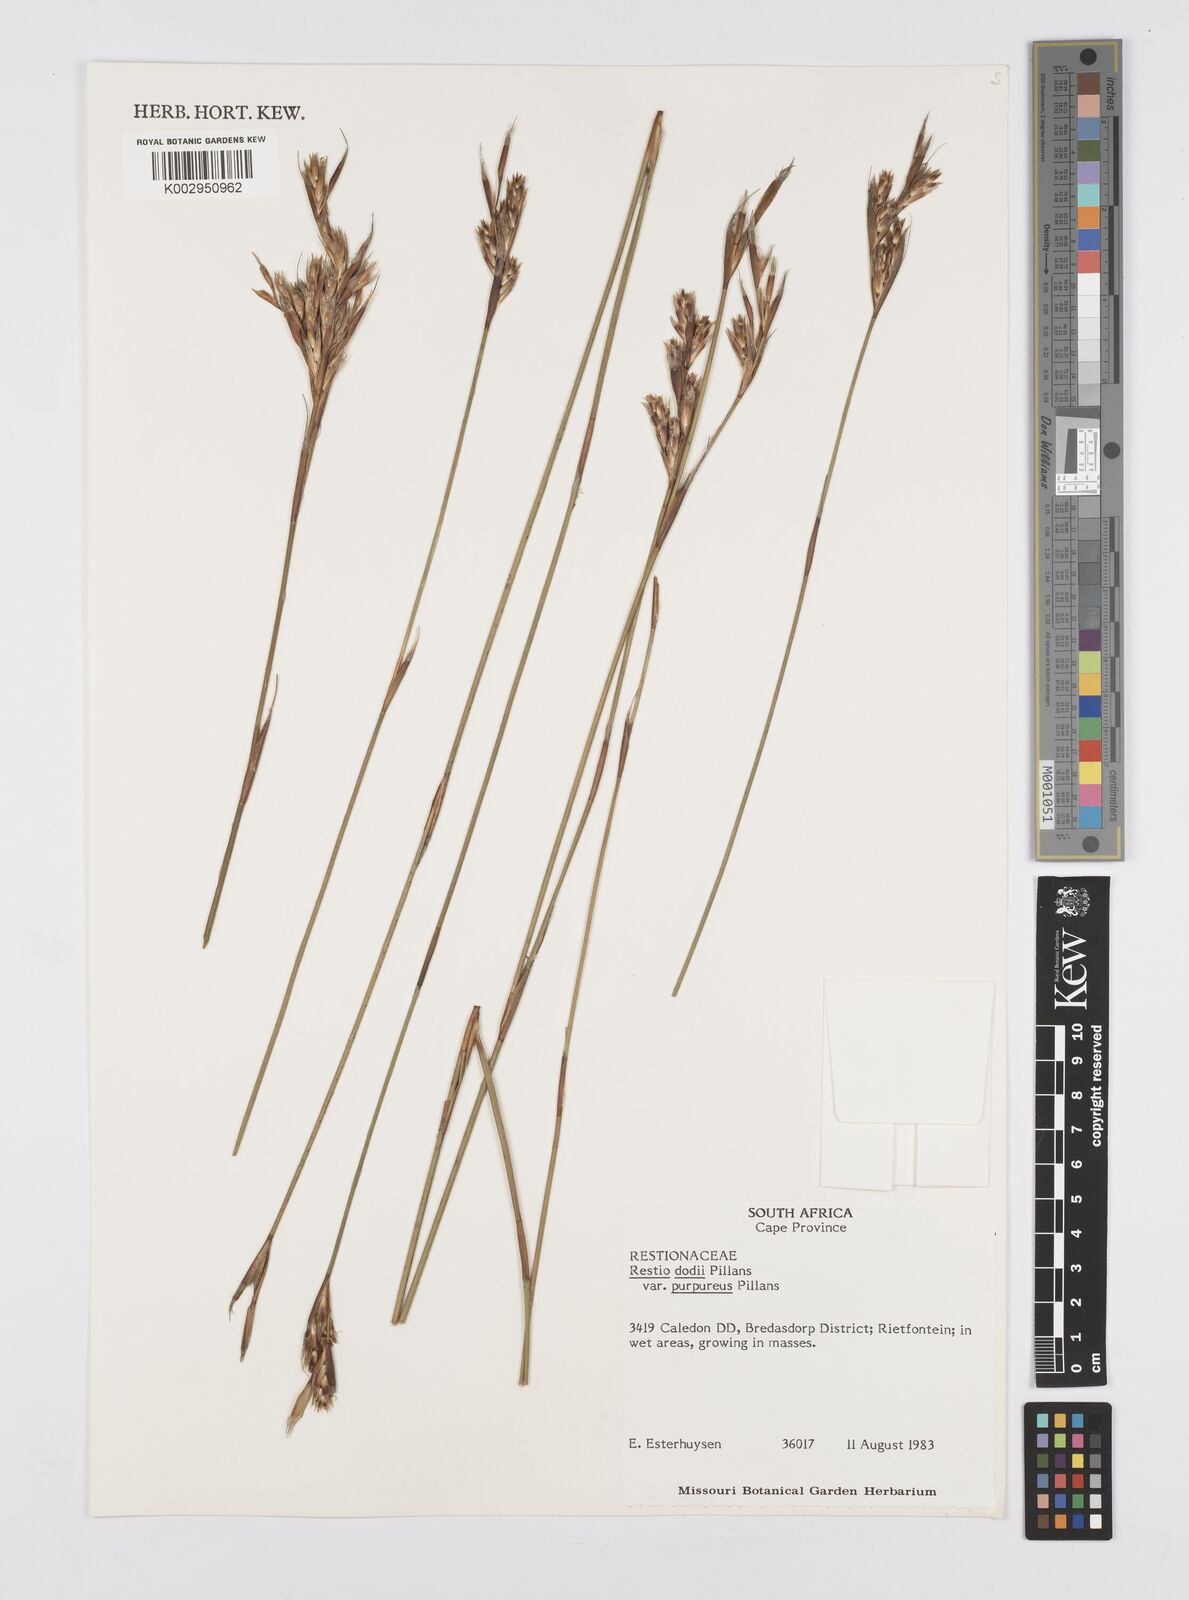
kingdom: Plantae
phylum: Tracheophyta
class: Liliopsida
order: Poales
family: Restionaceae
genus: Restio
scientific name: Restio dodii
